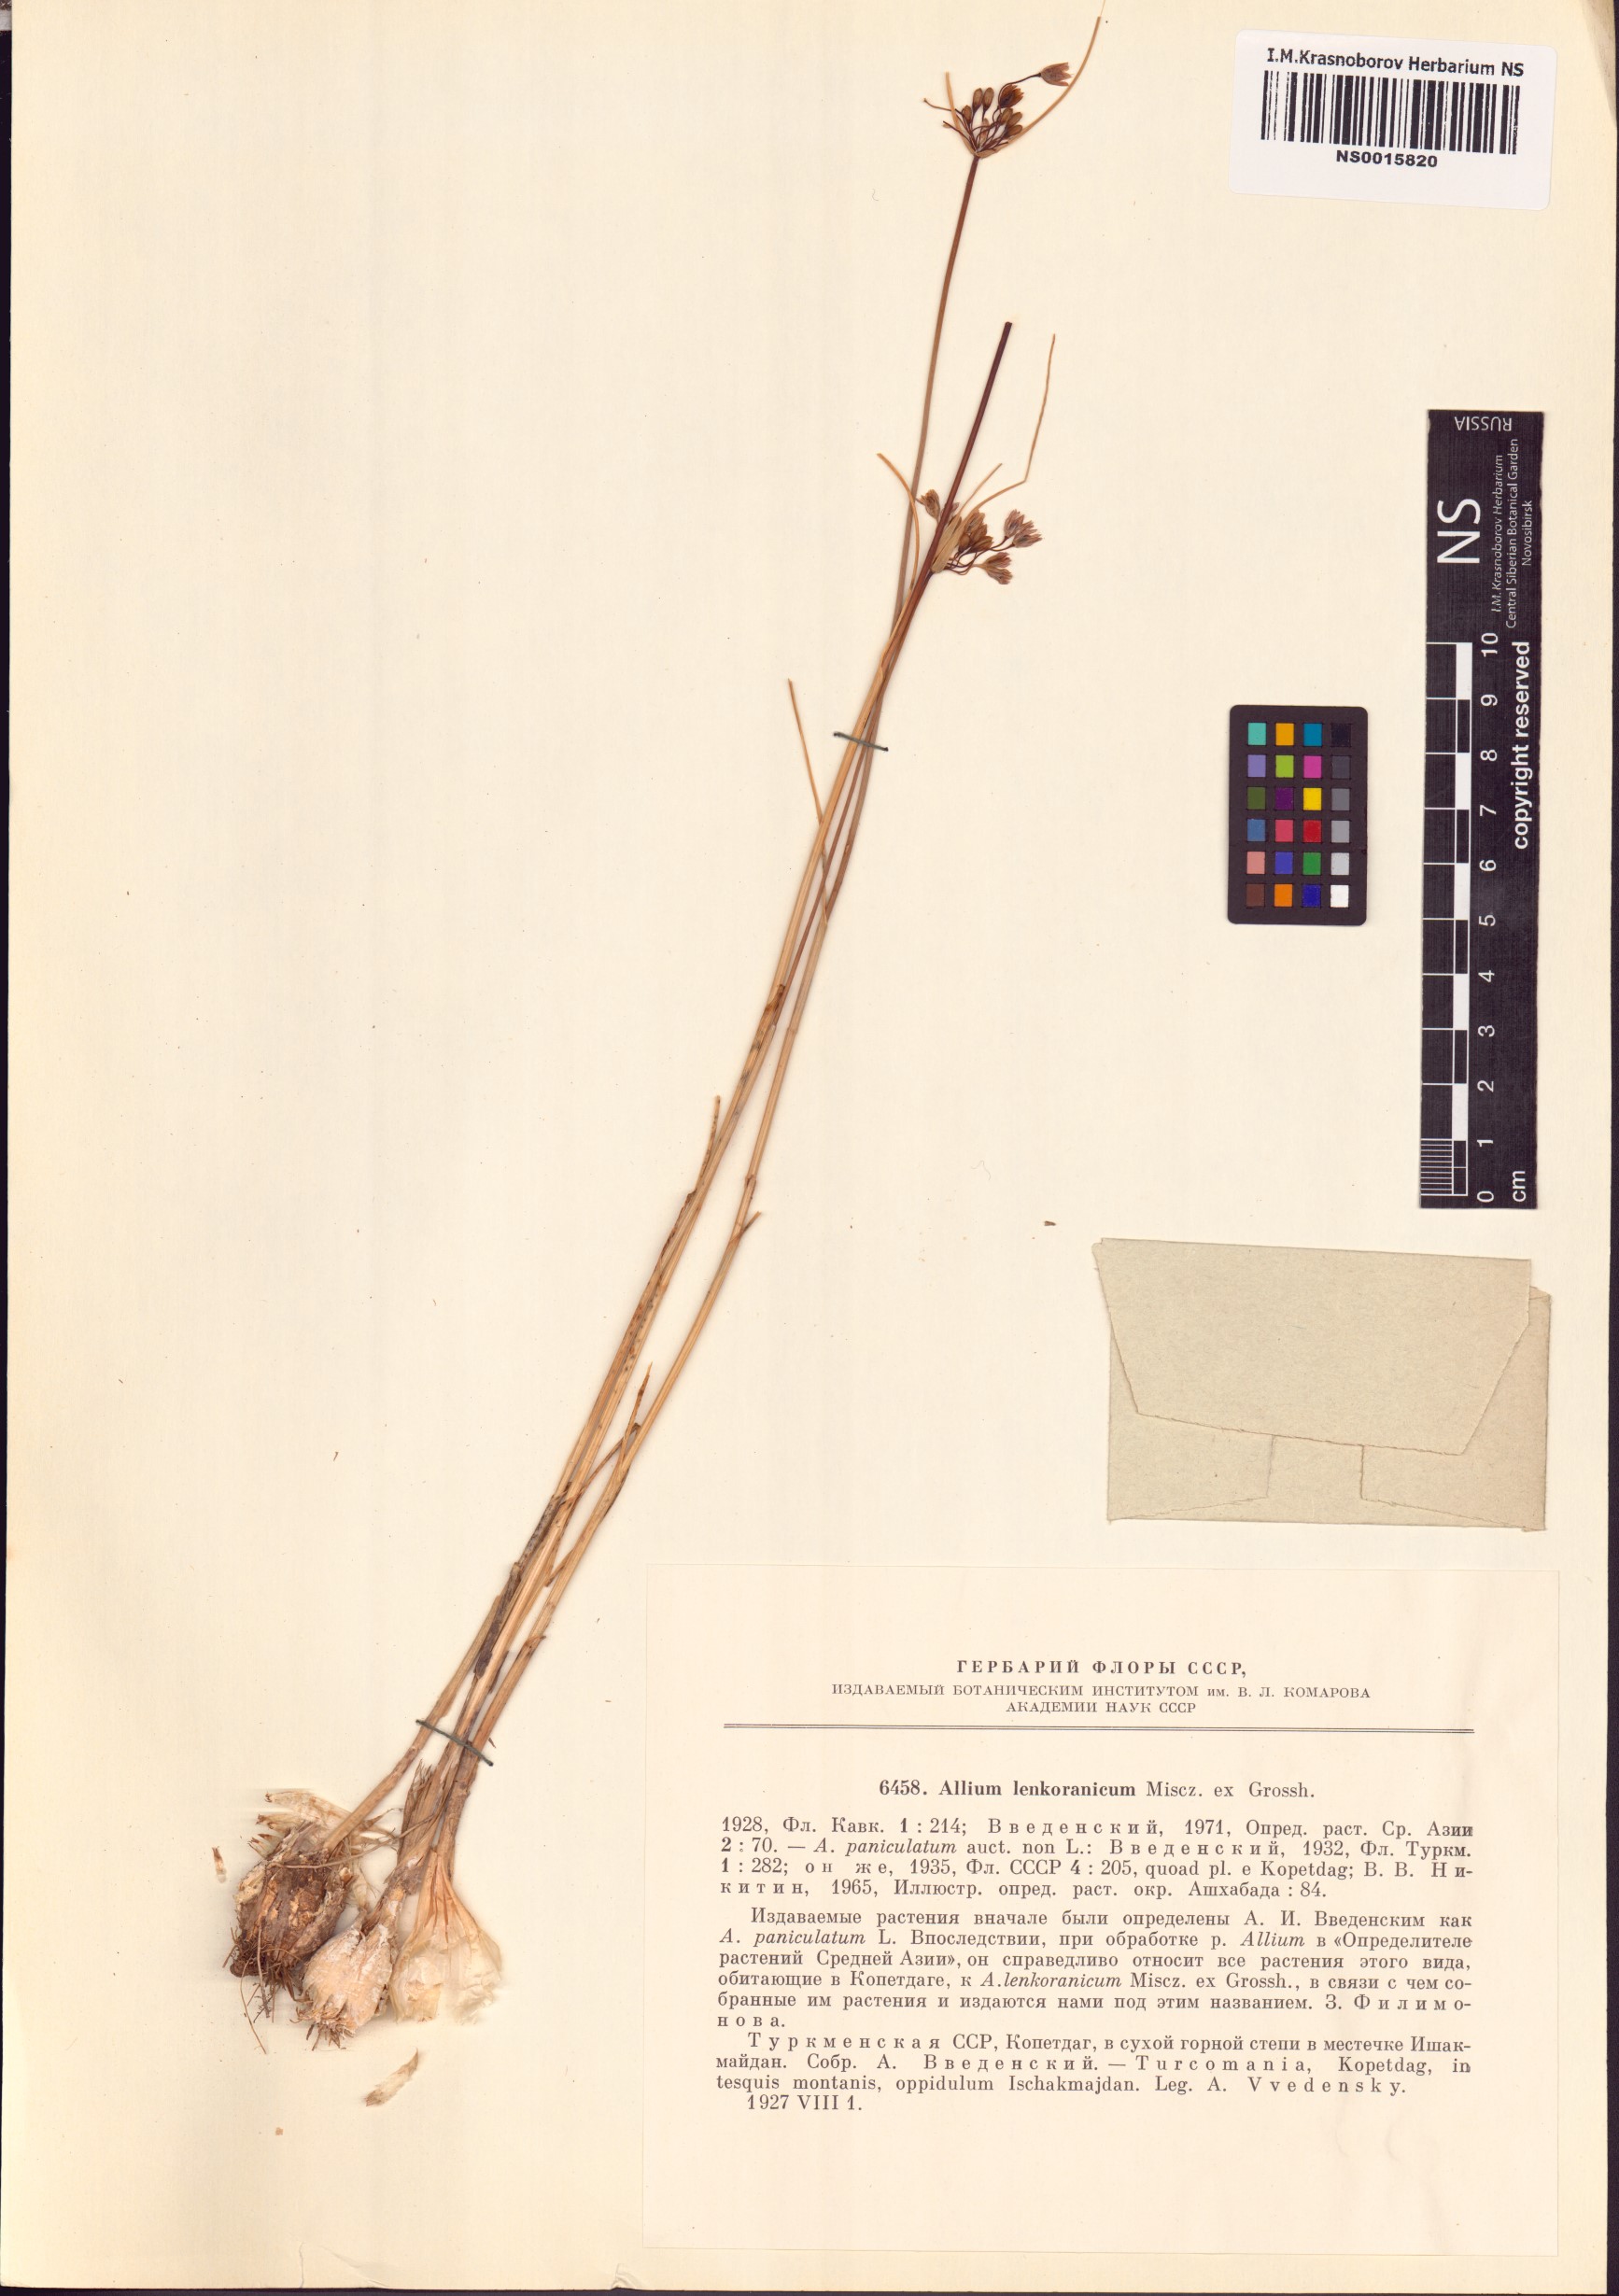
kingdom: Plantae
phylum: Tracheophyta
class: Liliopsida
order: Asparagales
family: Amaryllidaceae
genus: Allium
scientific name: Allium lenkoranicum
